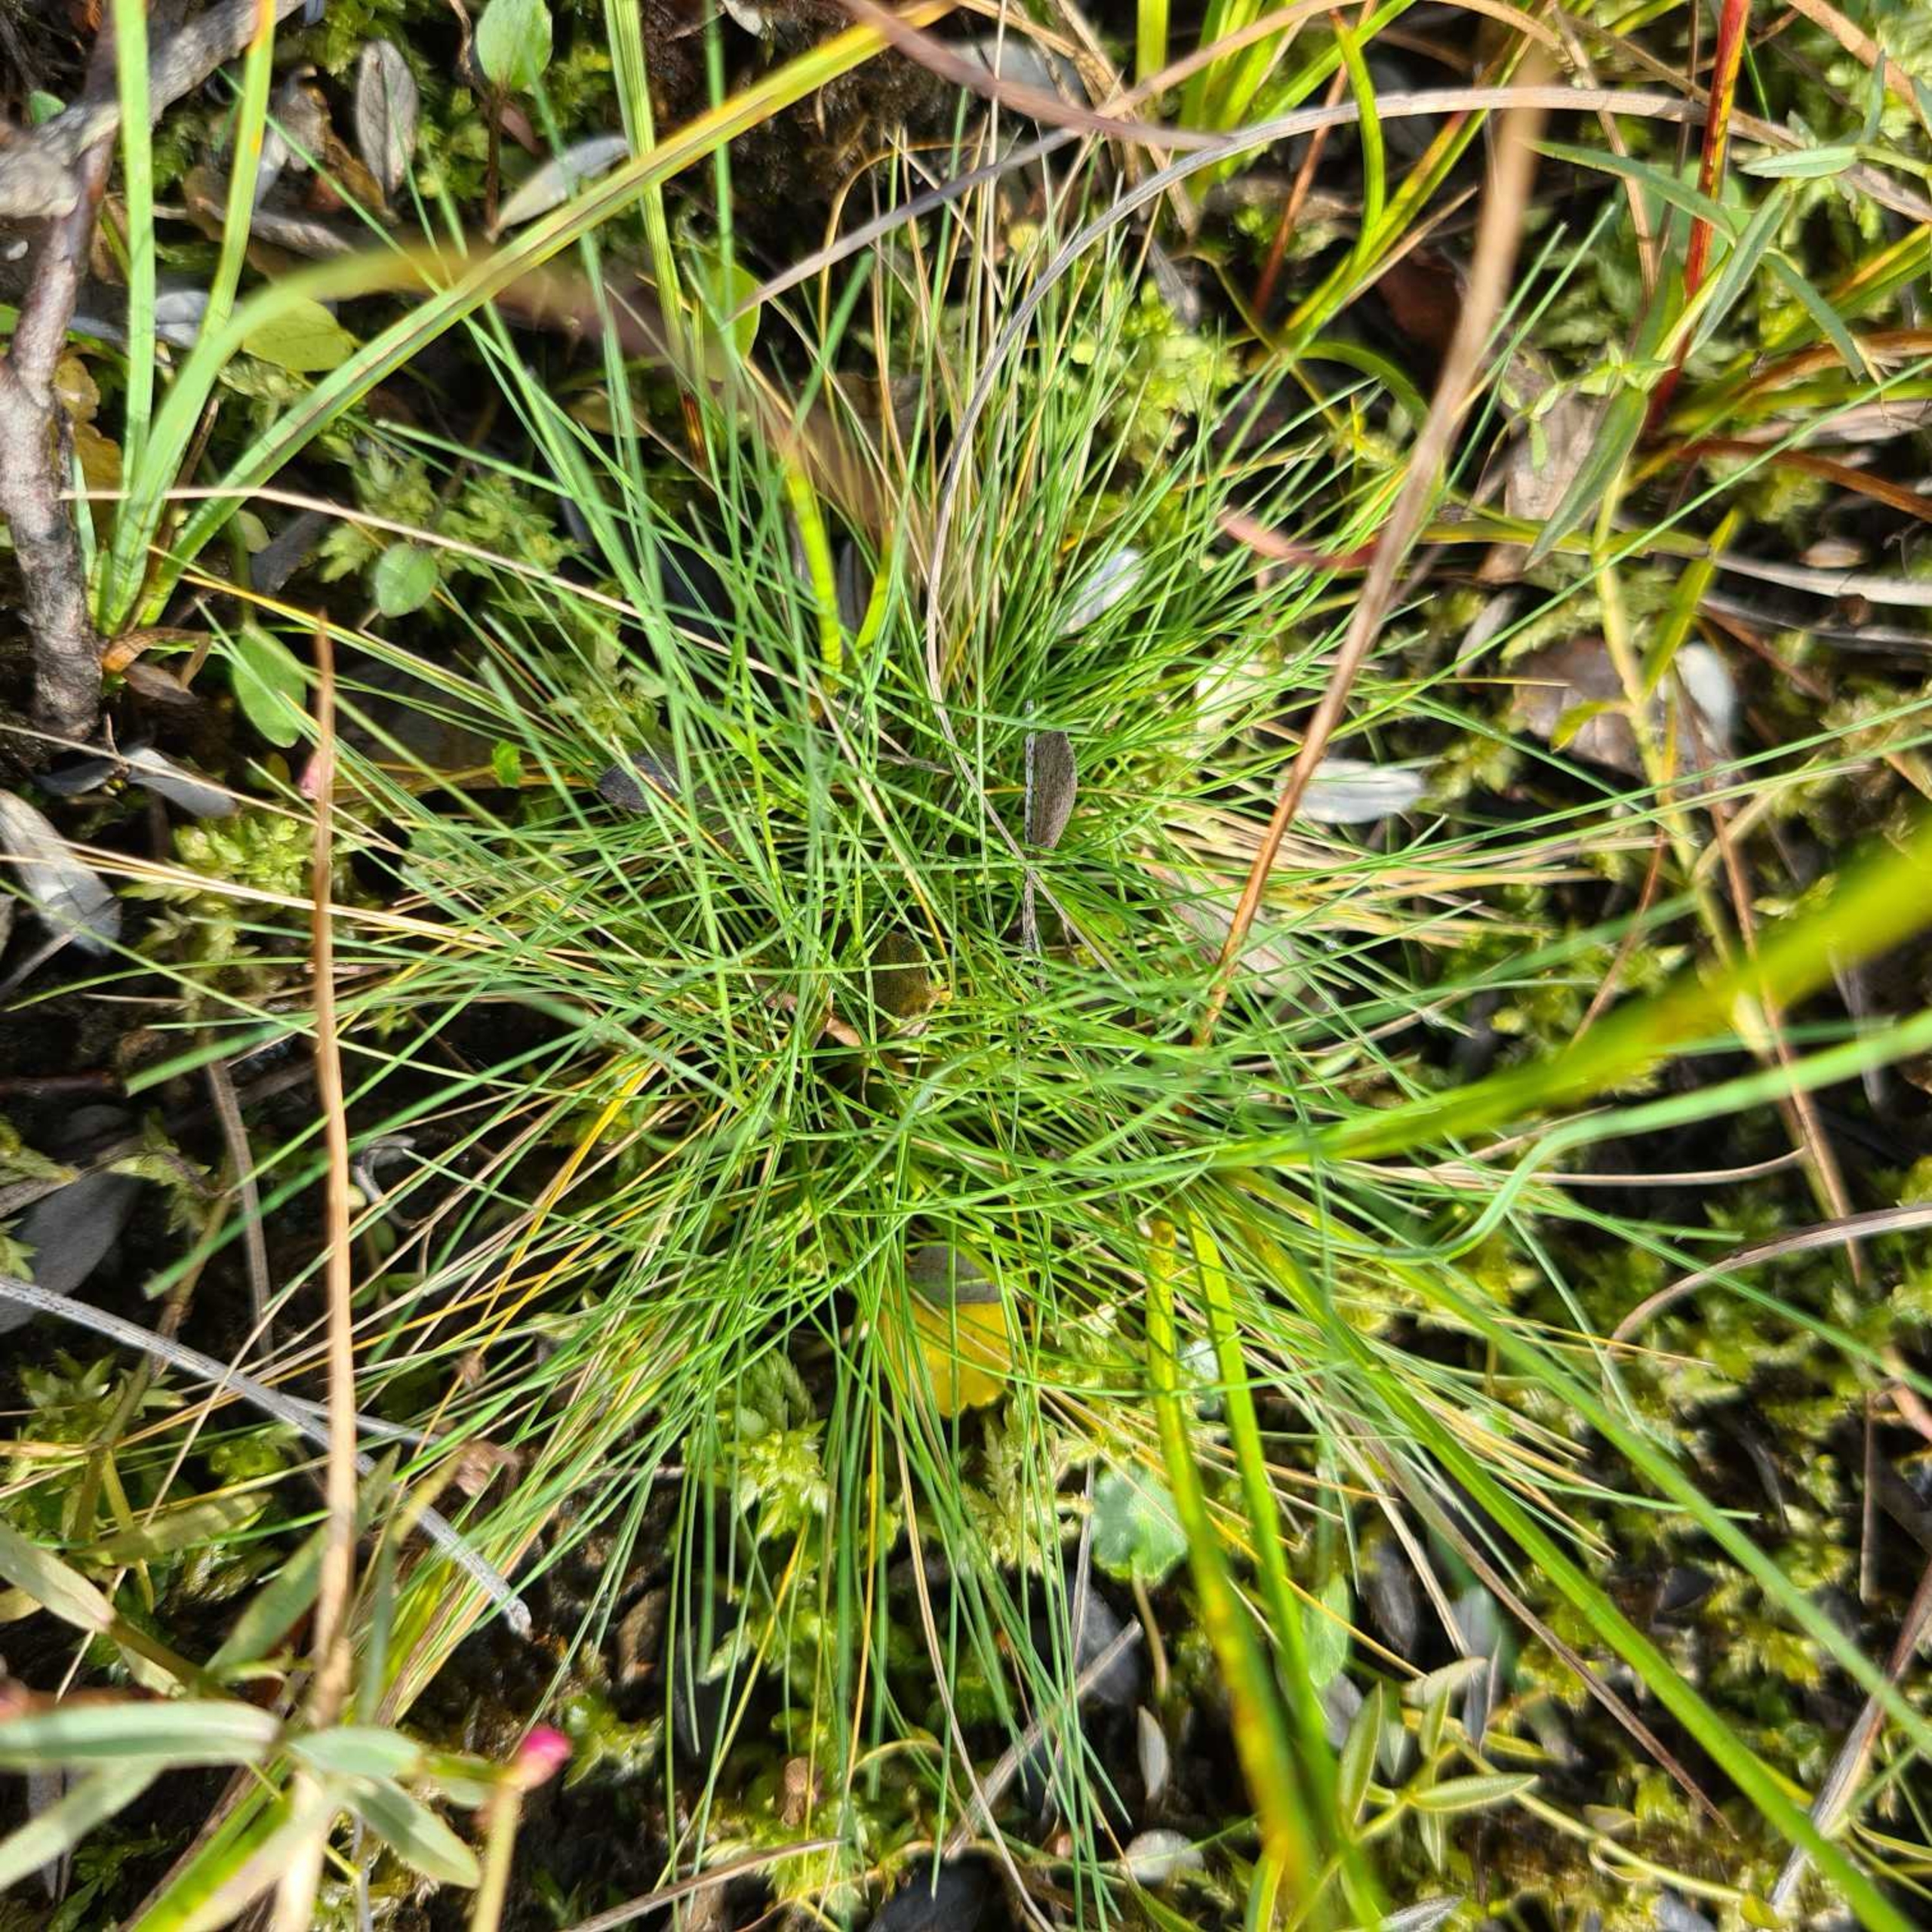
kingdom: Plantae
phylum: Tracheophyta
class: Liliopsida
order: Poales
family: Poaceae
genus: Deschampsia
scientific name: Deschampsia setacea
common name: Fin bunke
